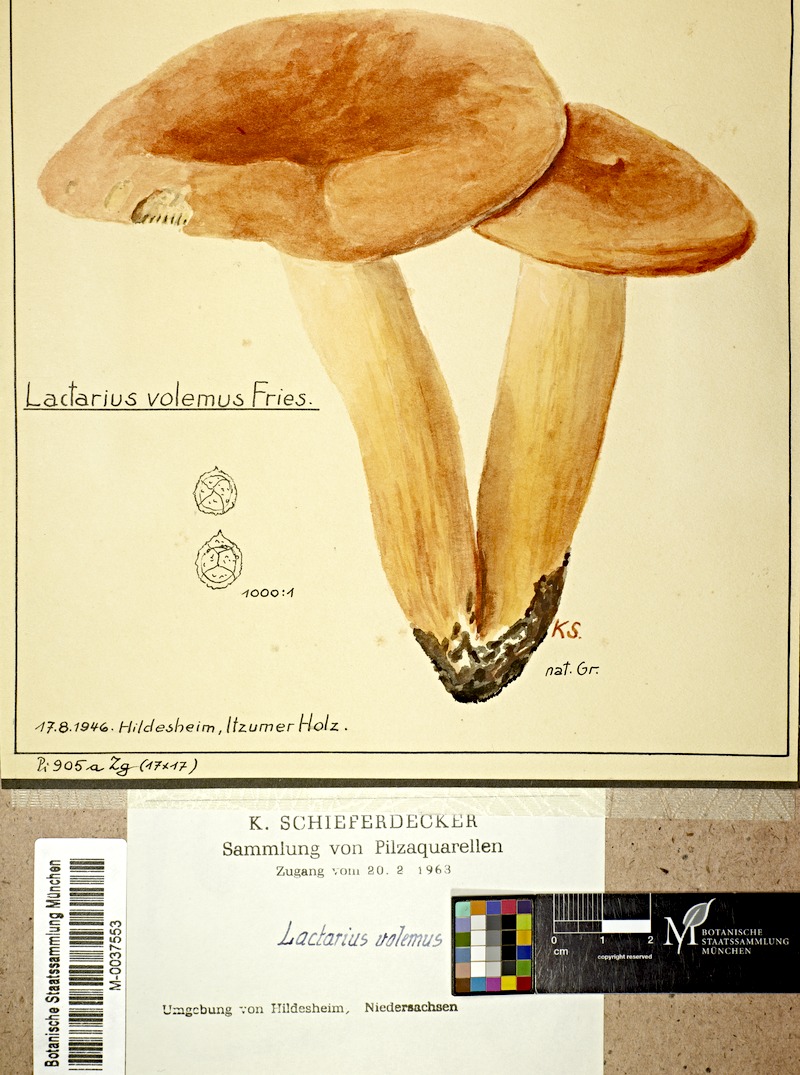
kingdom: Fungi
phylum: Basidiomycota
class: Agaricomycetes
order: Russulales
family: Russulaceae
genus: Lactifluus
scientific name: Lactifluus volemus
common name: Fishy milkcap
